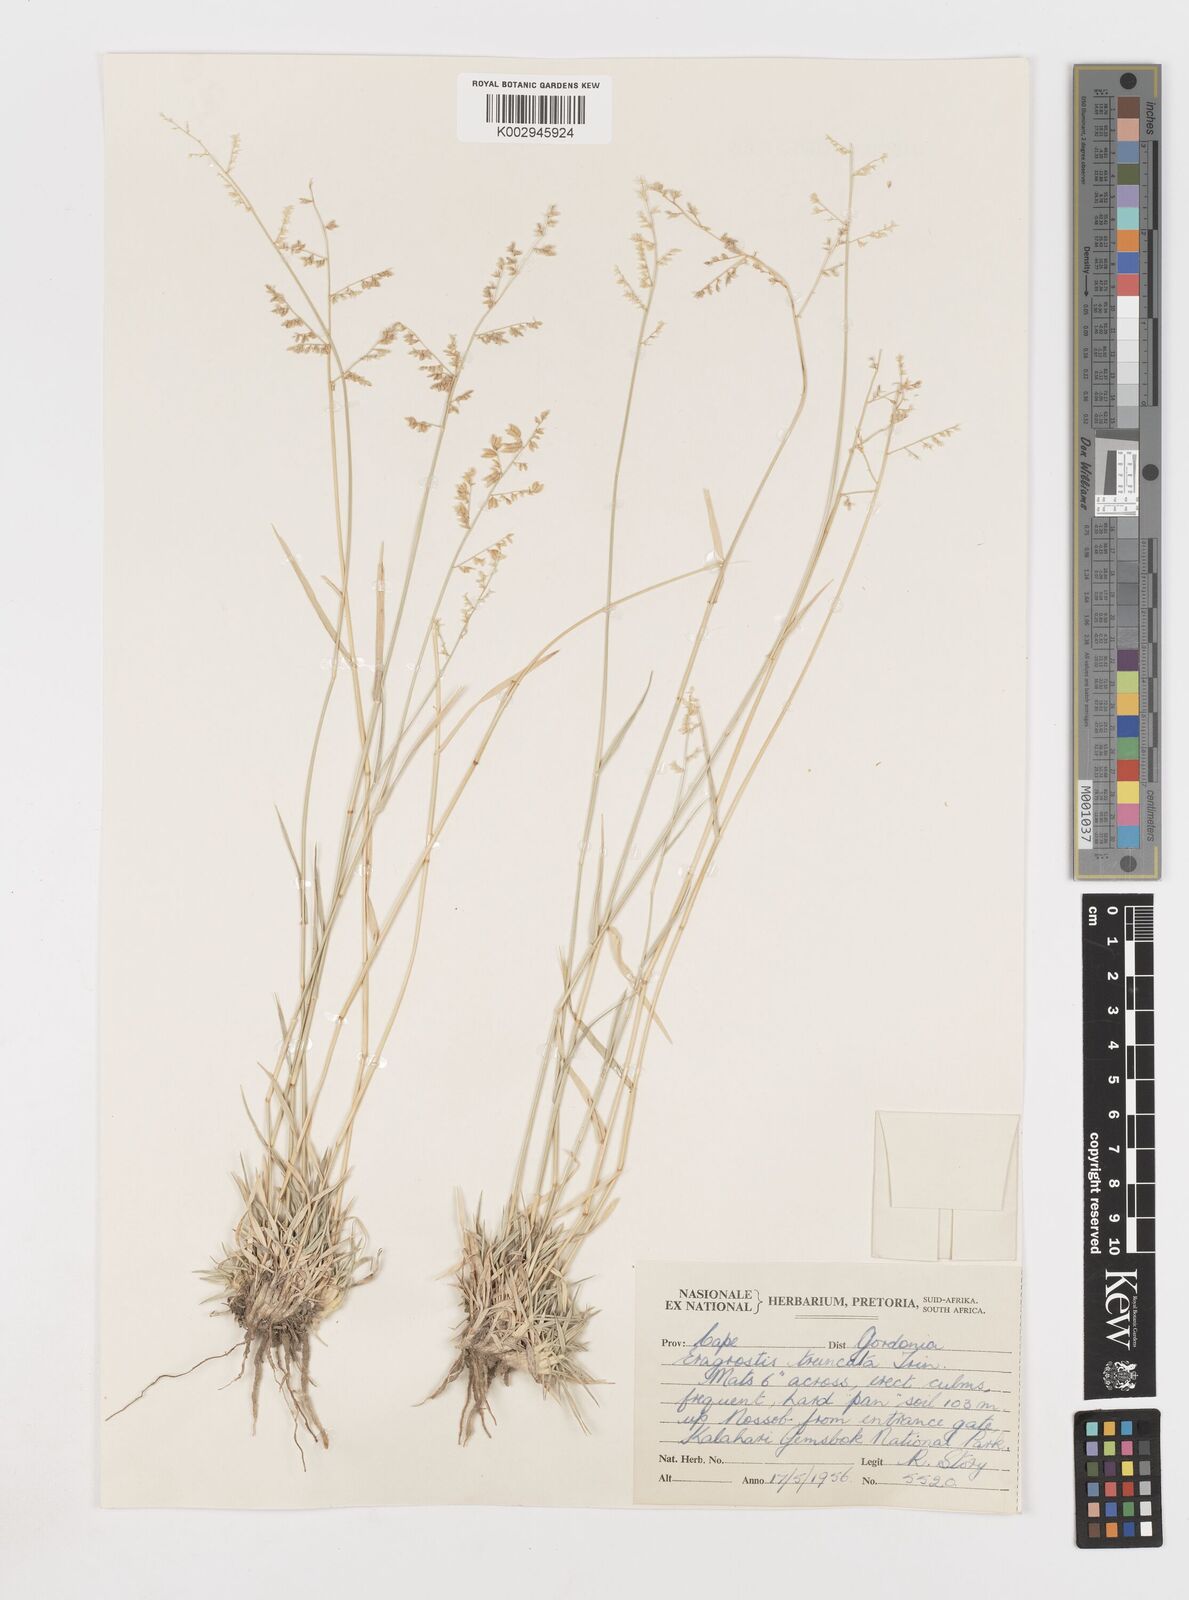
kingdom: Plantae
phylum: Tracheophyta
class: Liliopsida
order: Poales
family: Poaceae
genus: Eragrostis
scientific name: Eragrostis truncata
